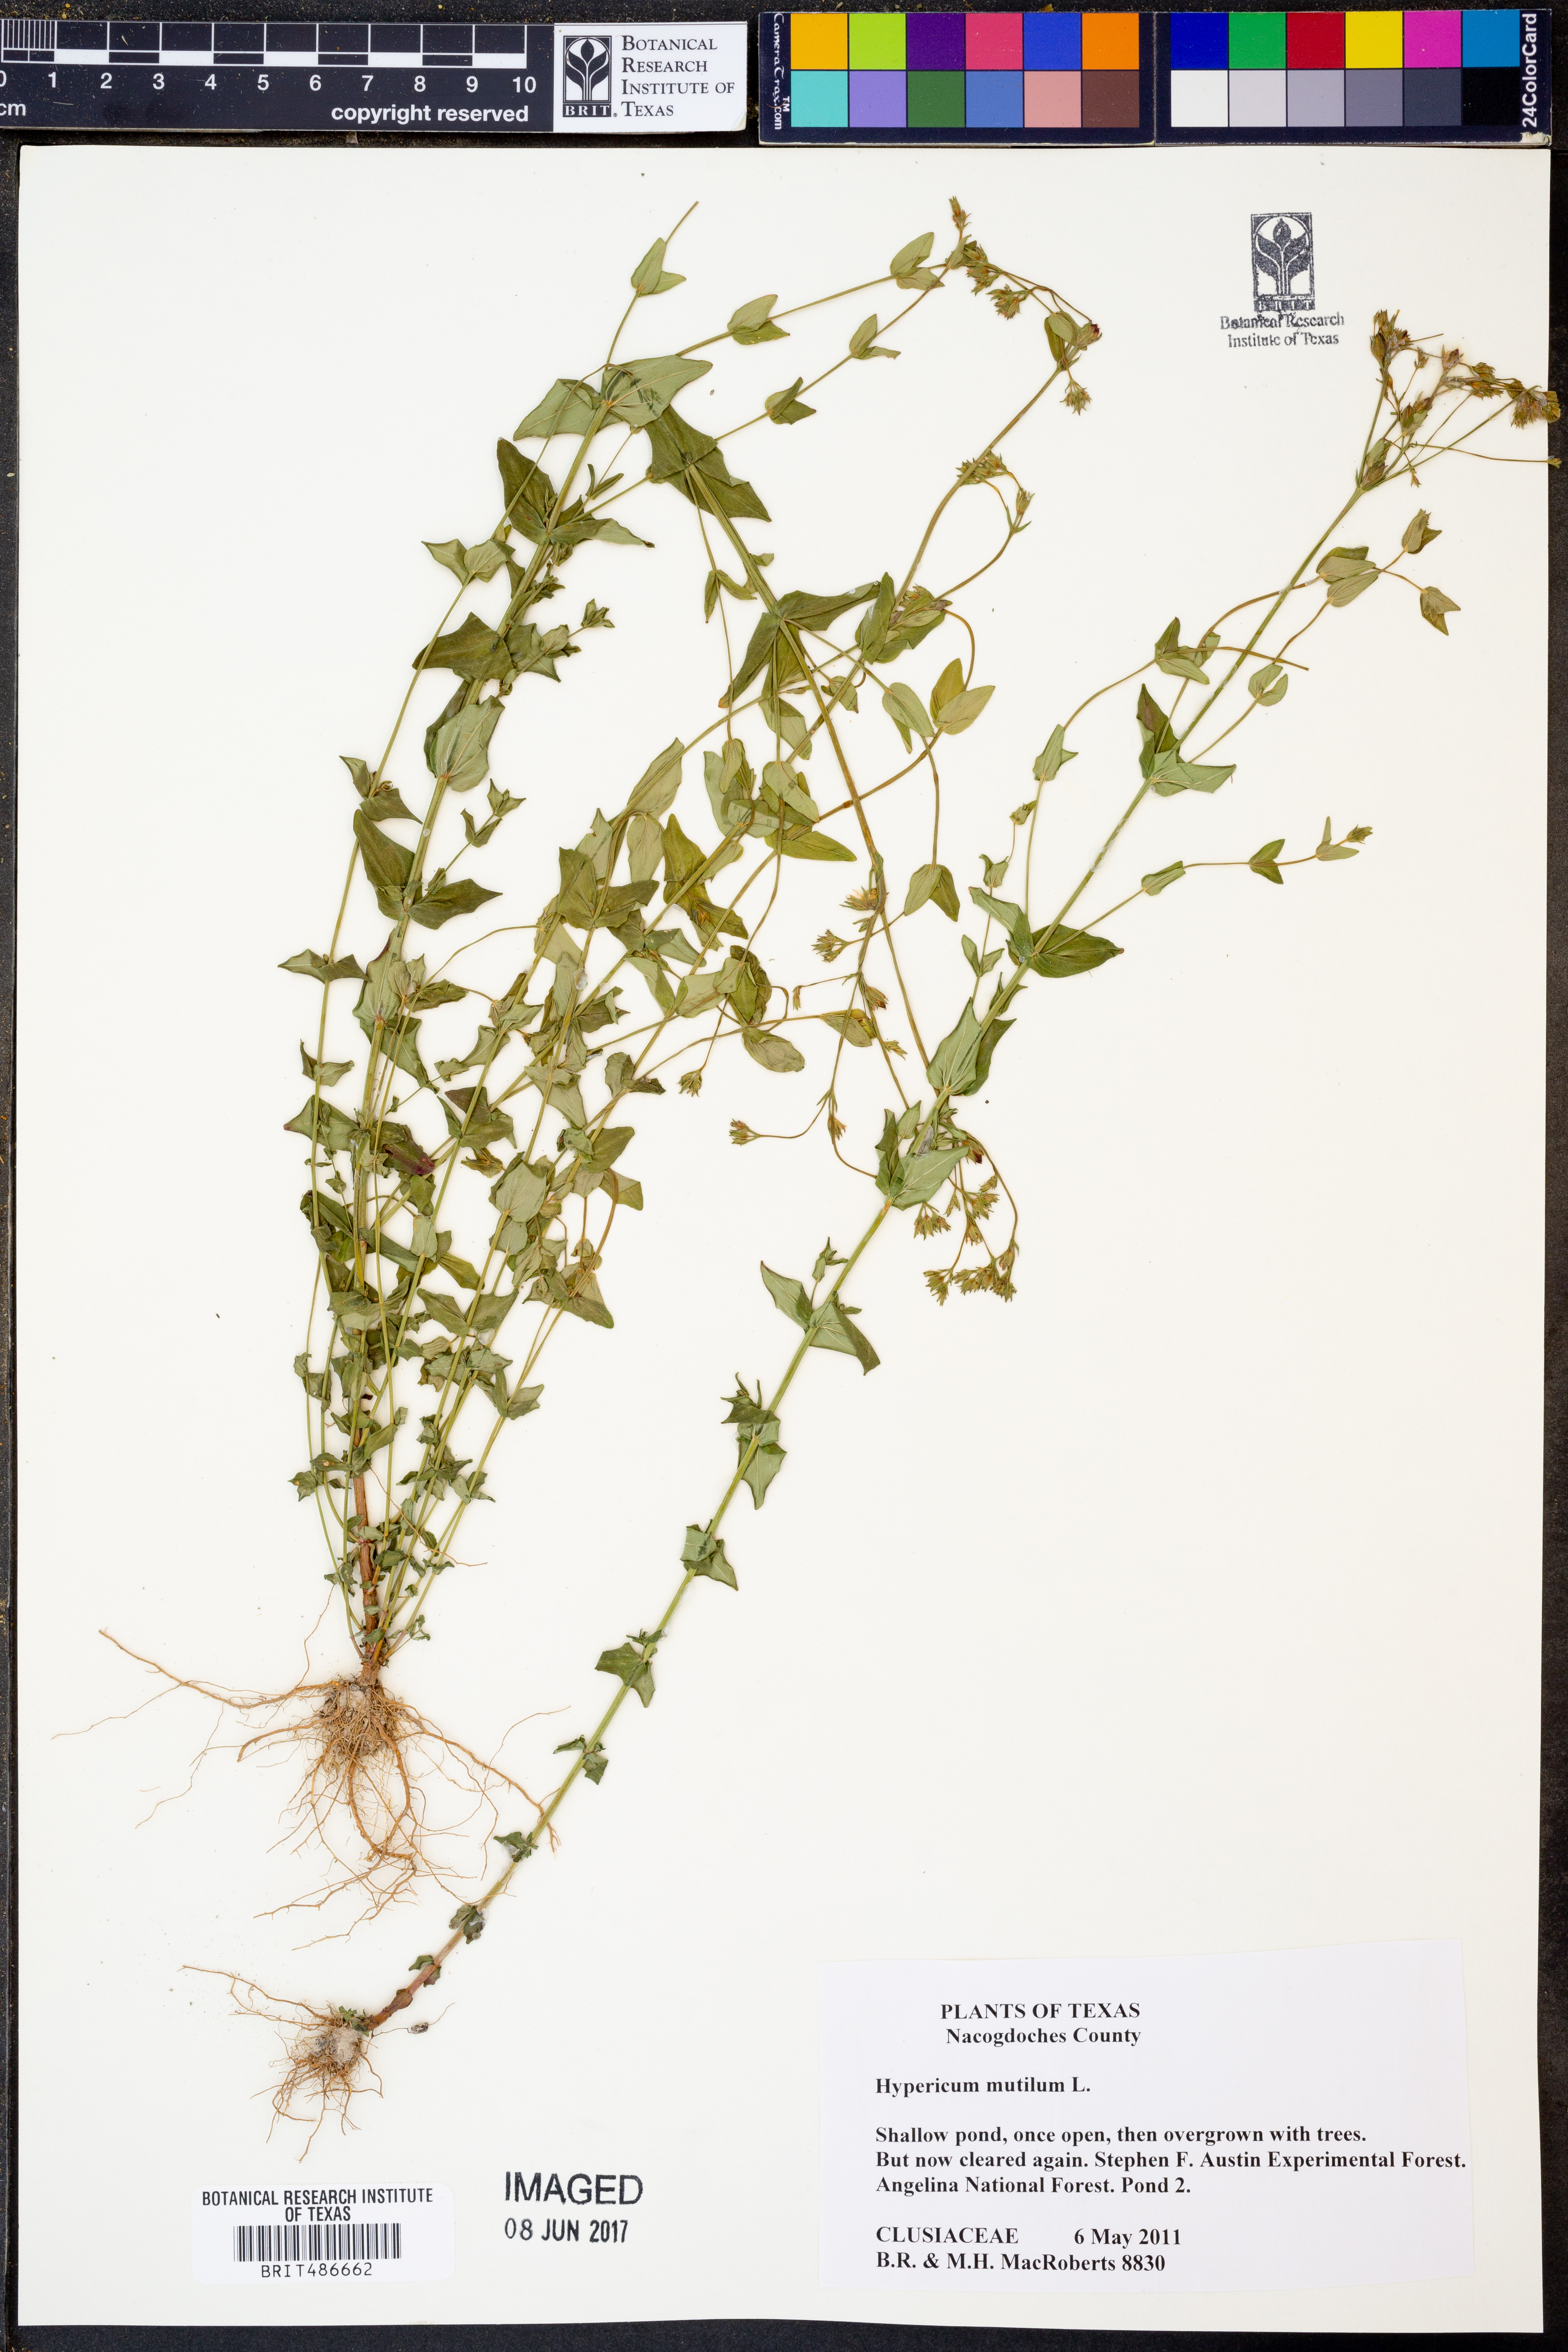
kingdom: Plantae
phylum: Tracheophyta
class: Magnoliopsida
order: Malpighiales
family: Hypericaceae
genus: Hypericum
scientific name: Hypericum mutilum
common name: Dwarf st. john's-wort
